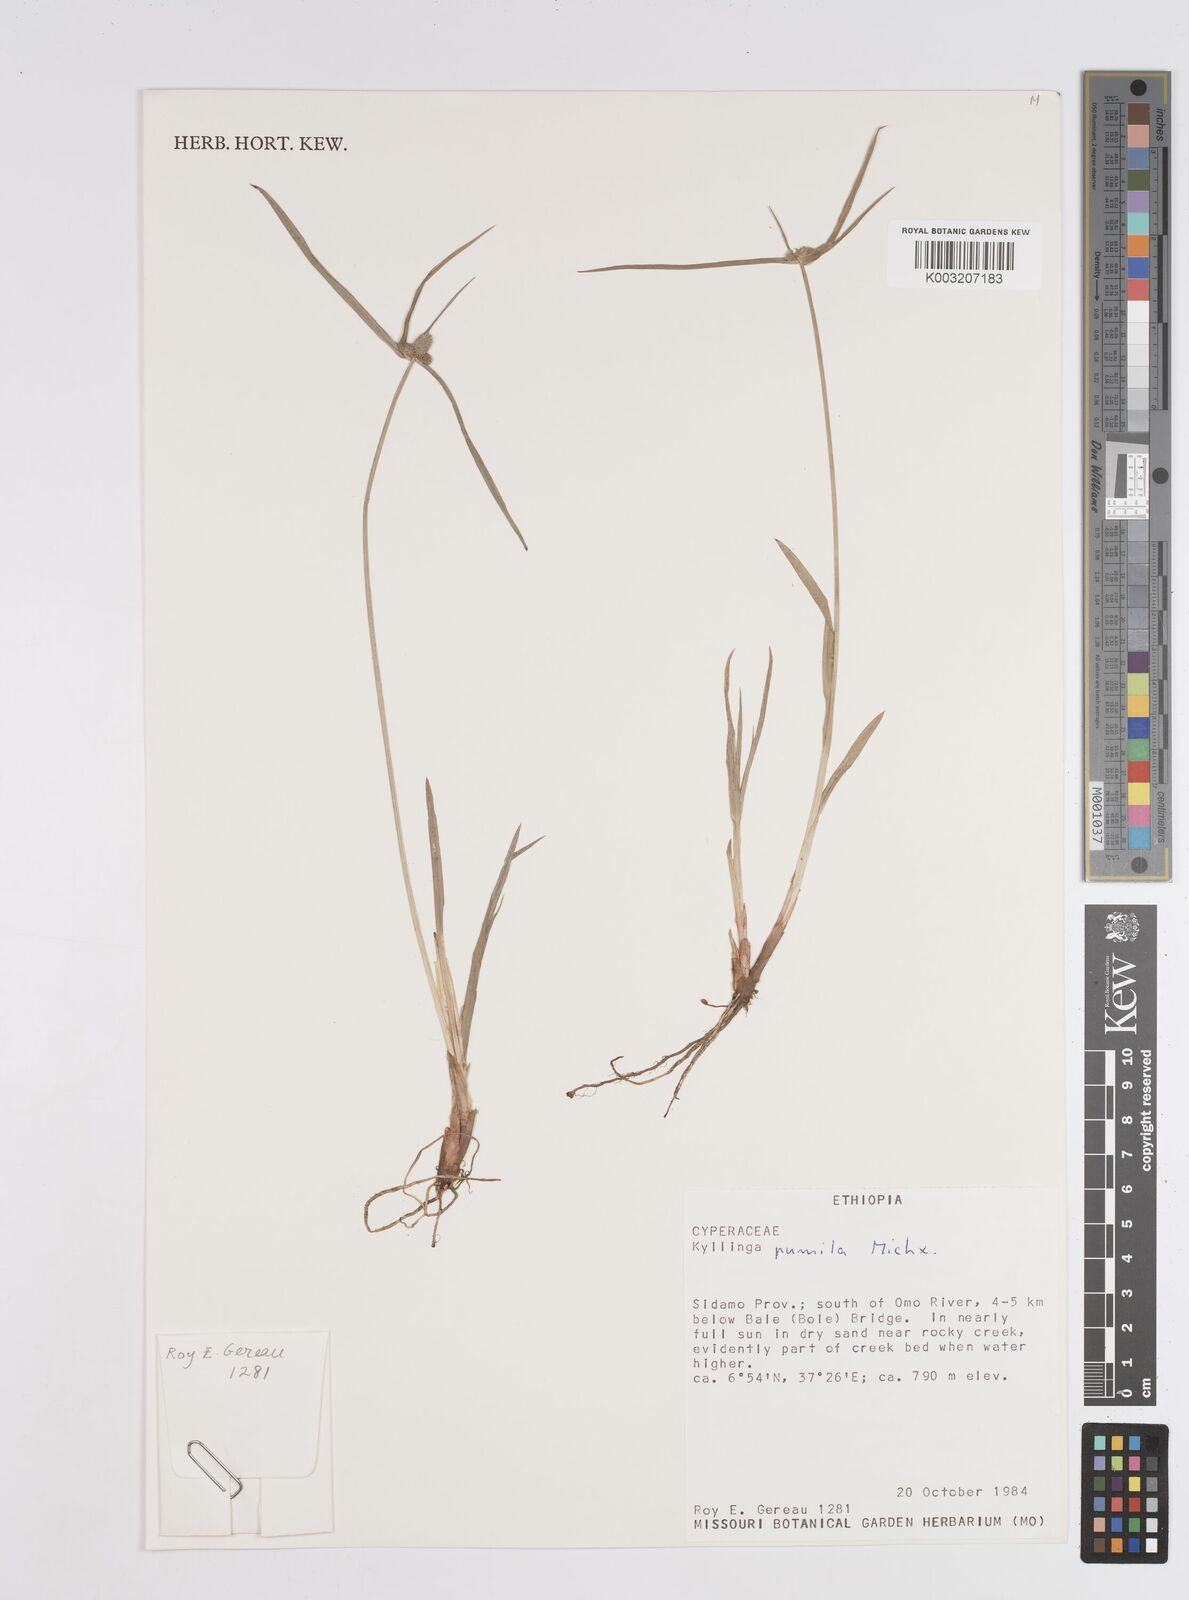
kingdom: Plantae
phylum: Tracheophyta
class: Liliopsida
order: Poales
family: Cyperaceae
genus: Cyperus
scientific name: Cyperus
